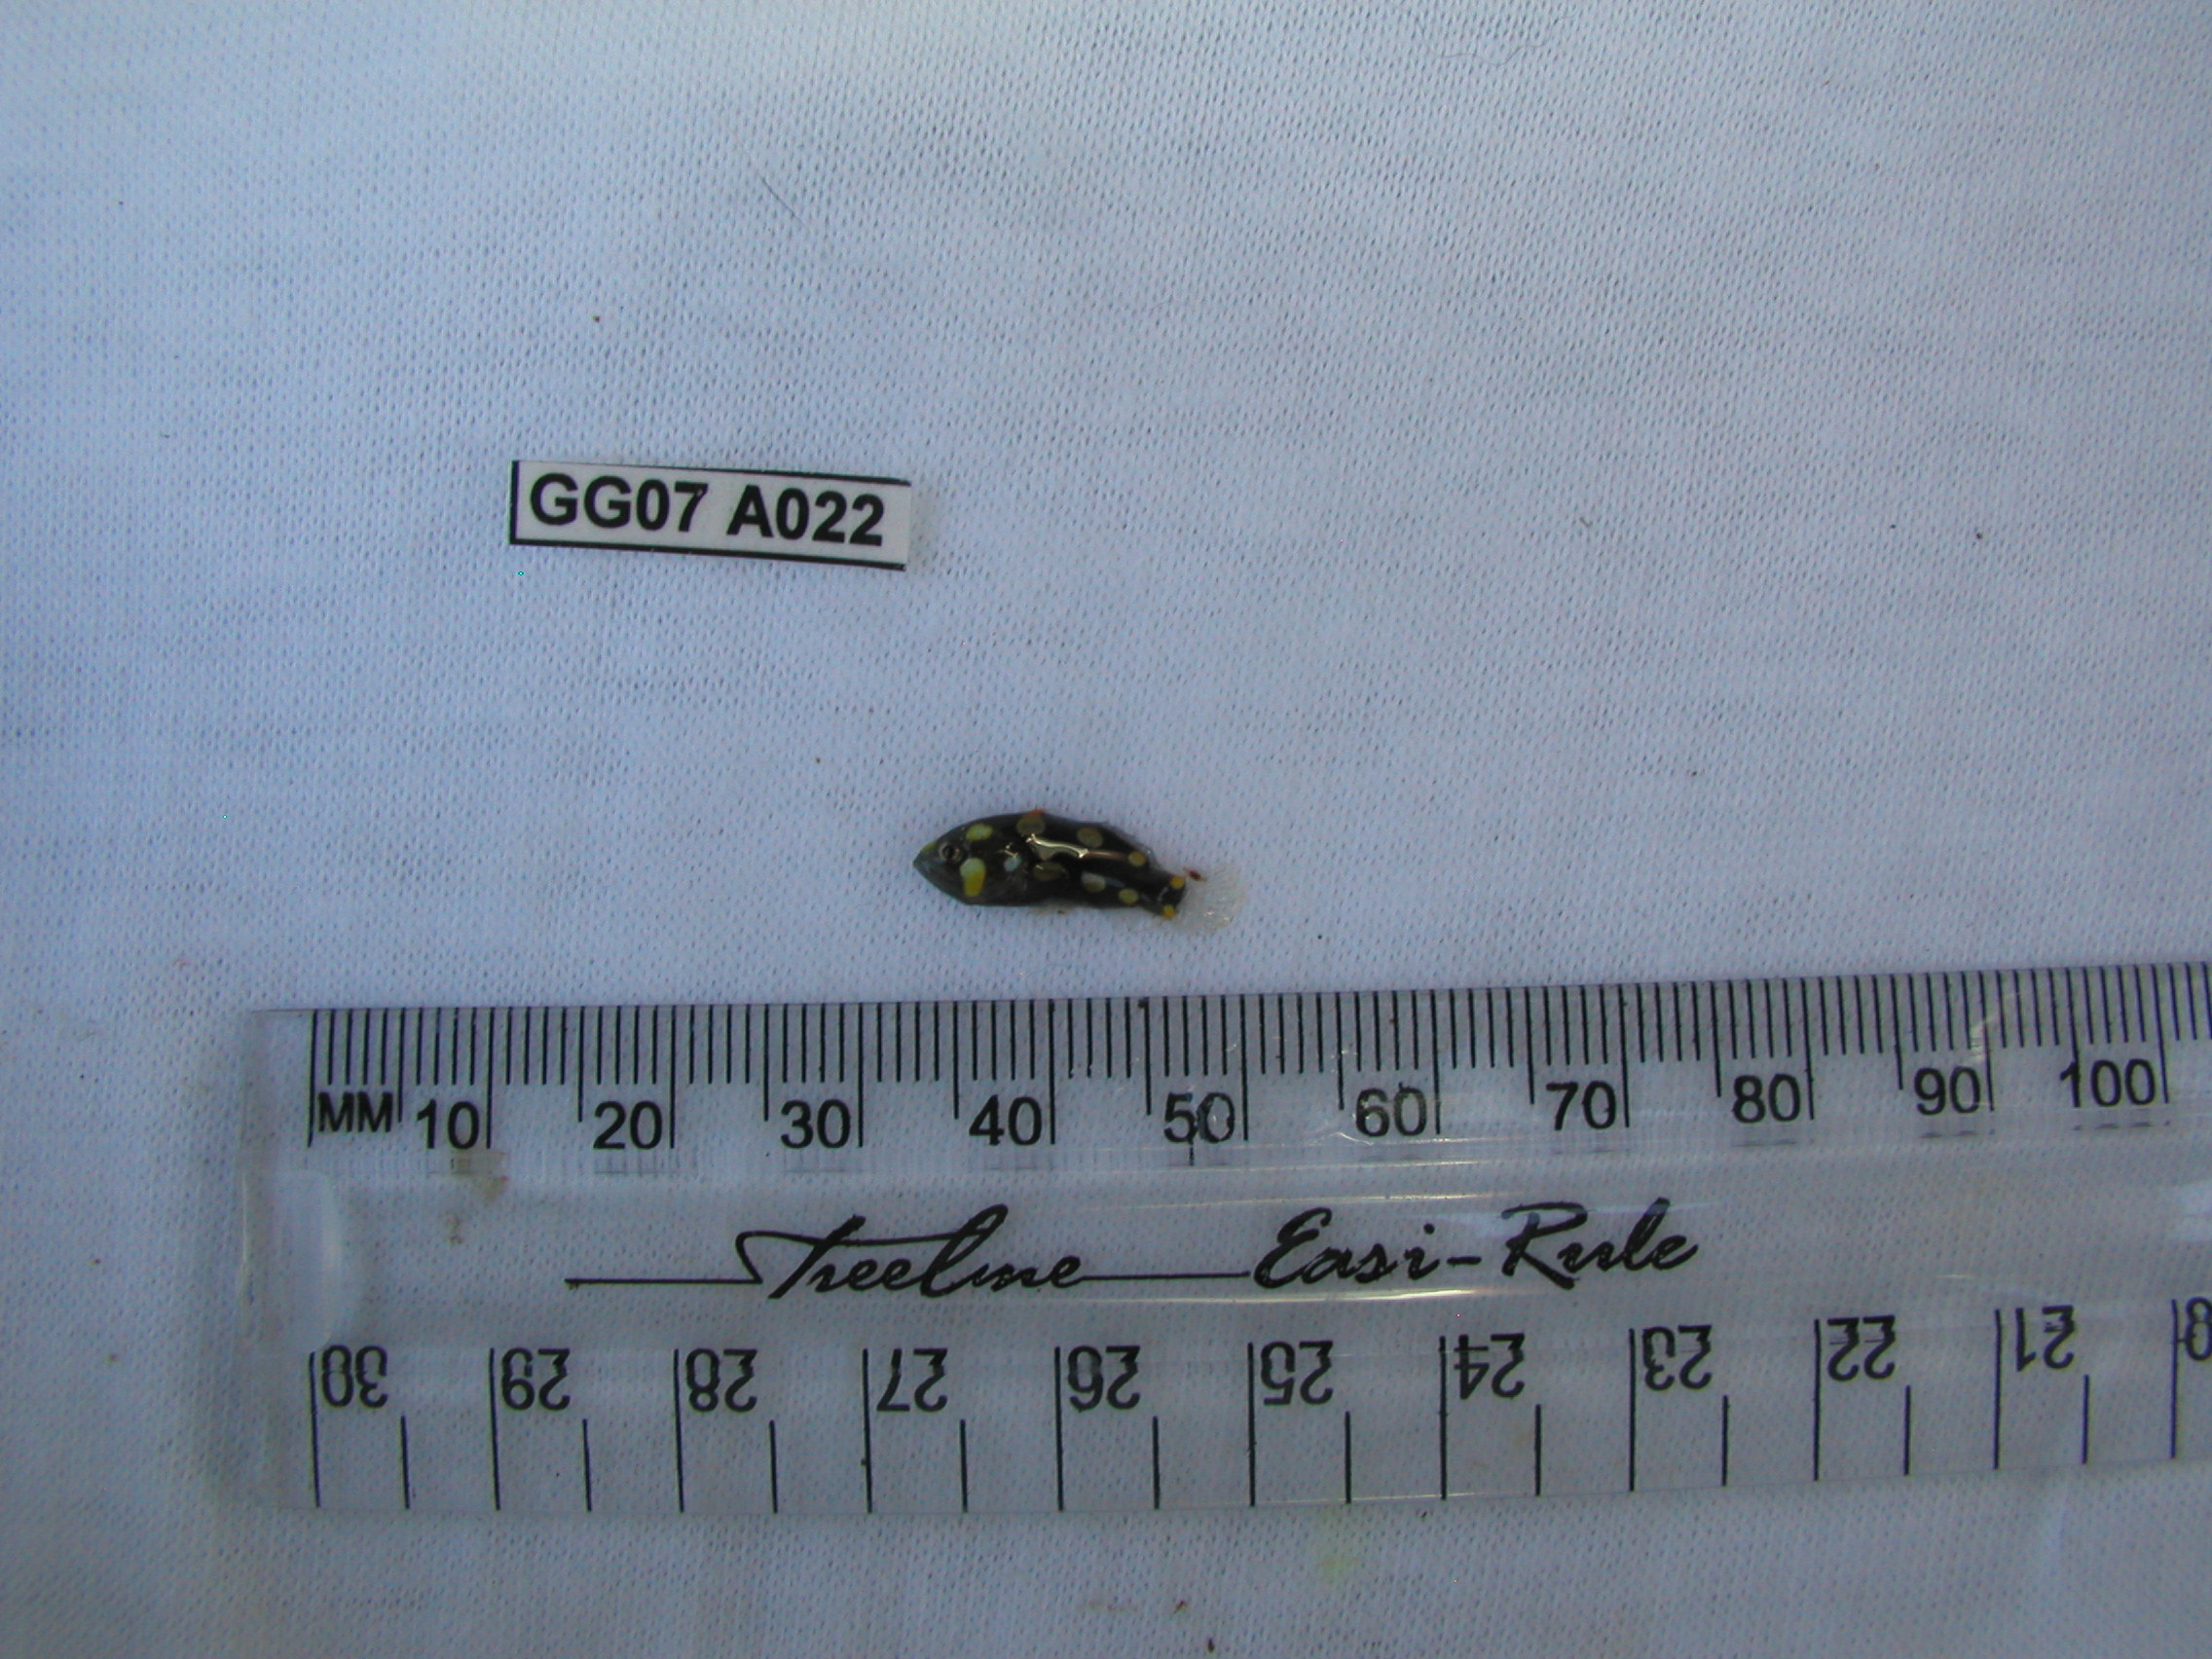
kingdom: Animalia
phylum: Chordata
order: Perciformes
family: Serranidae
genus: Grammistes
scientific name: Grammistes sexlineatus
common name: Sixline soapfish
